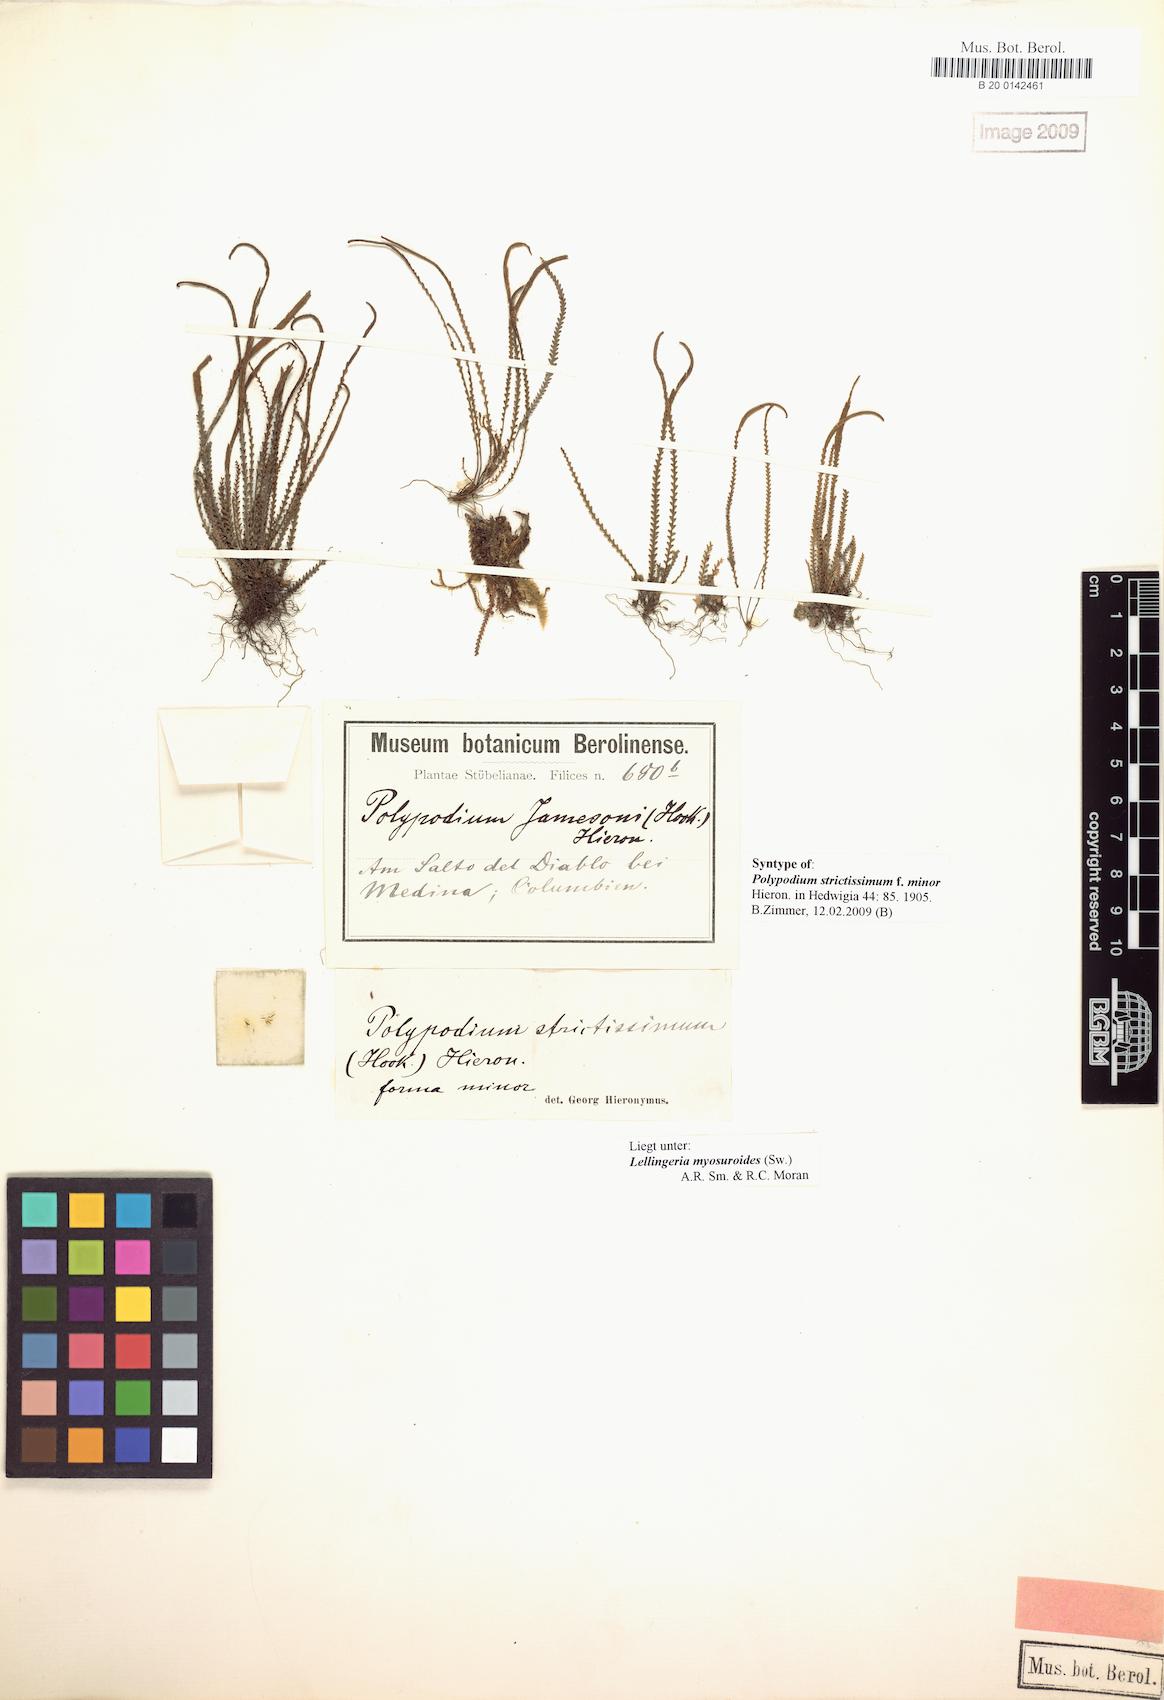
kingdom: Plantae
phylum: Tracheophyta
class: Polypodiopsida
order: Polypodiales
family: Polypodiaceae
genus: Stenogrammitis
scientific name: Stenogrammitis jamesonii
